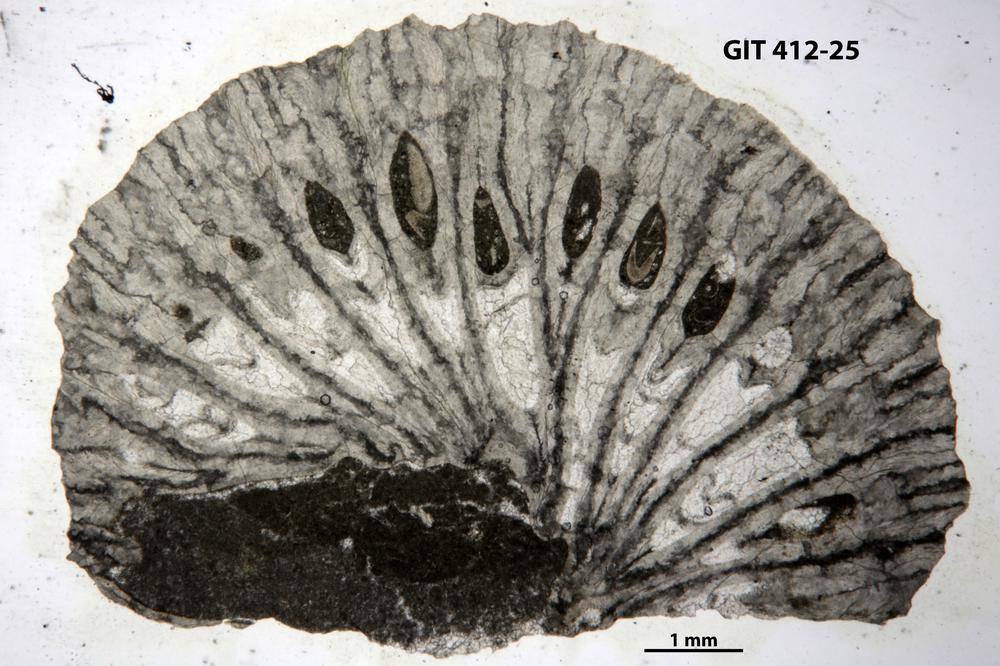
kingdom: Animalia
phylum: Cnidaria
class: Anthozoa
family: Streptelasmatidae
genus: Tungussophyllum
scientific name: Tungussophyllum
